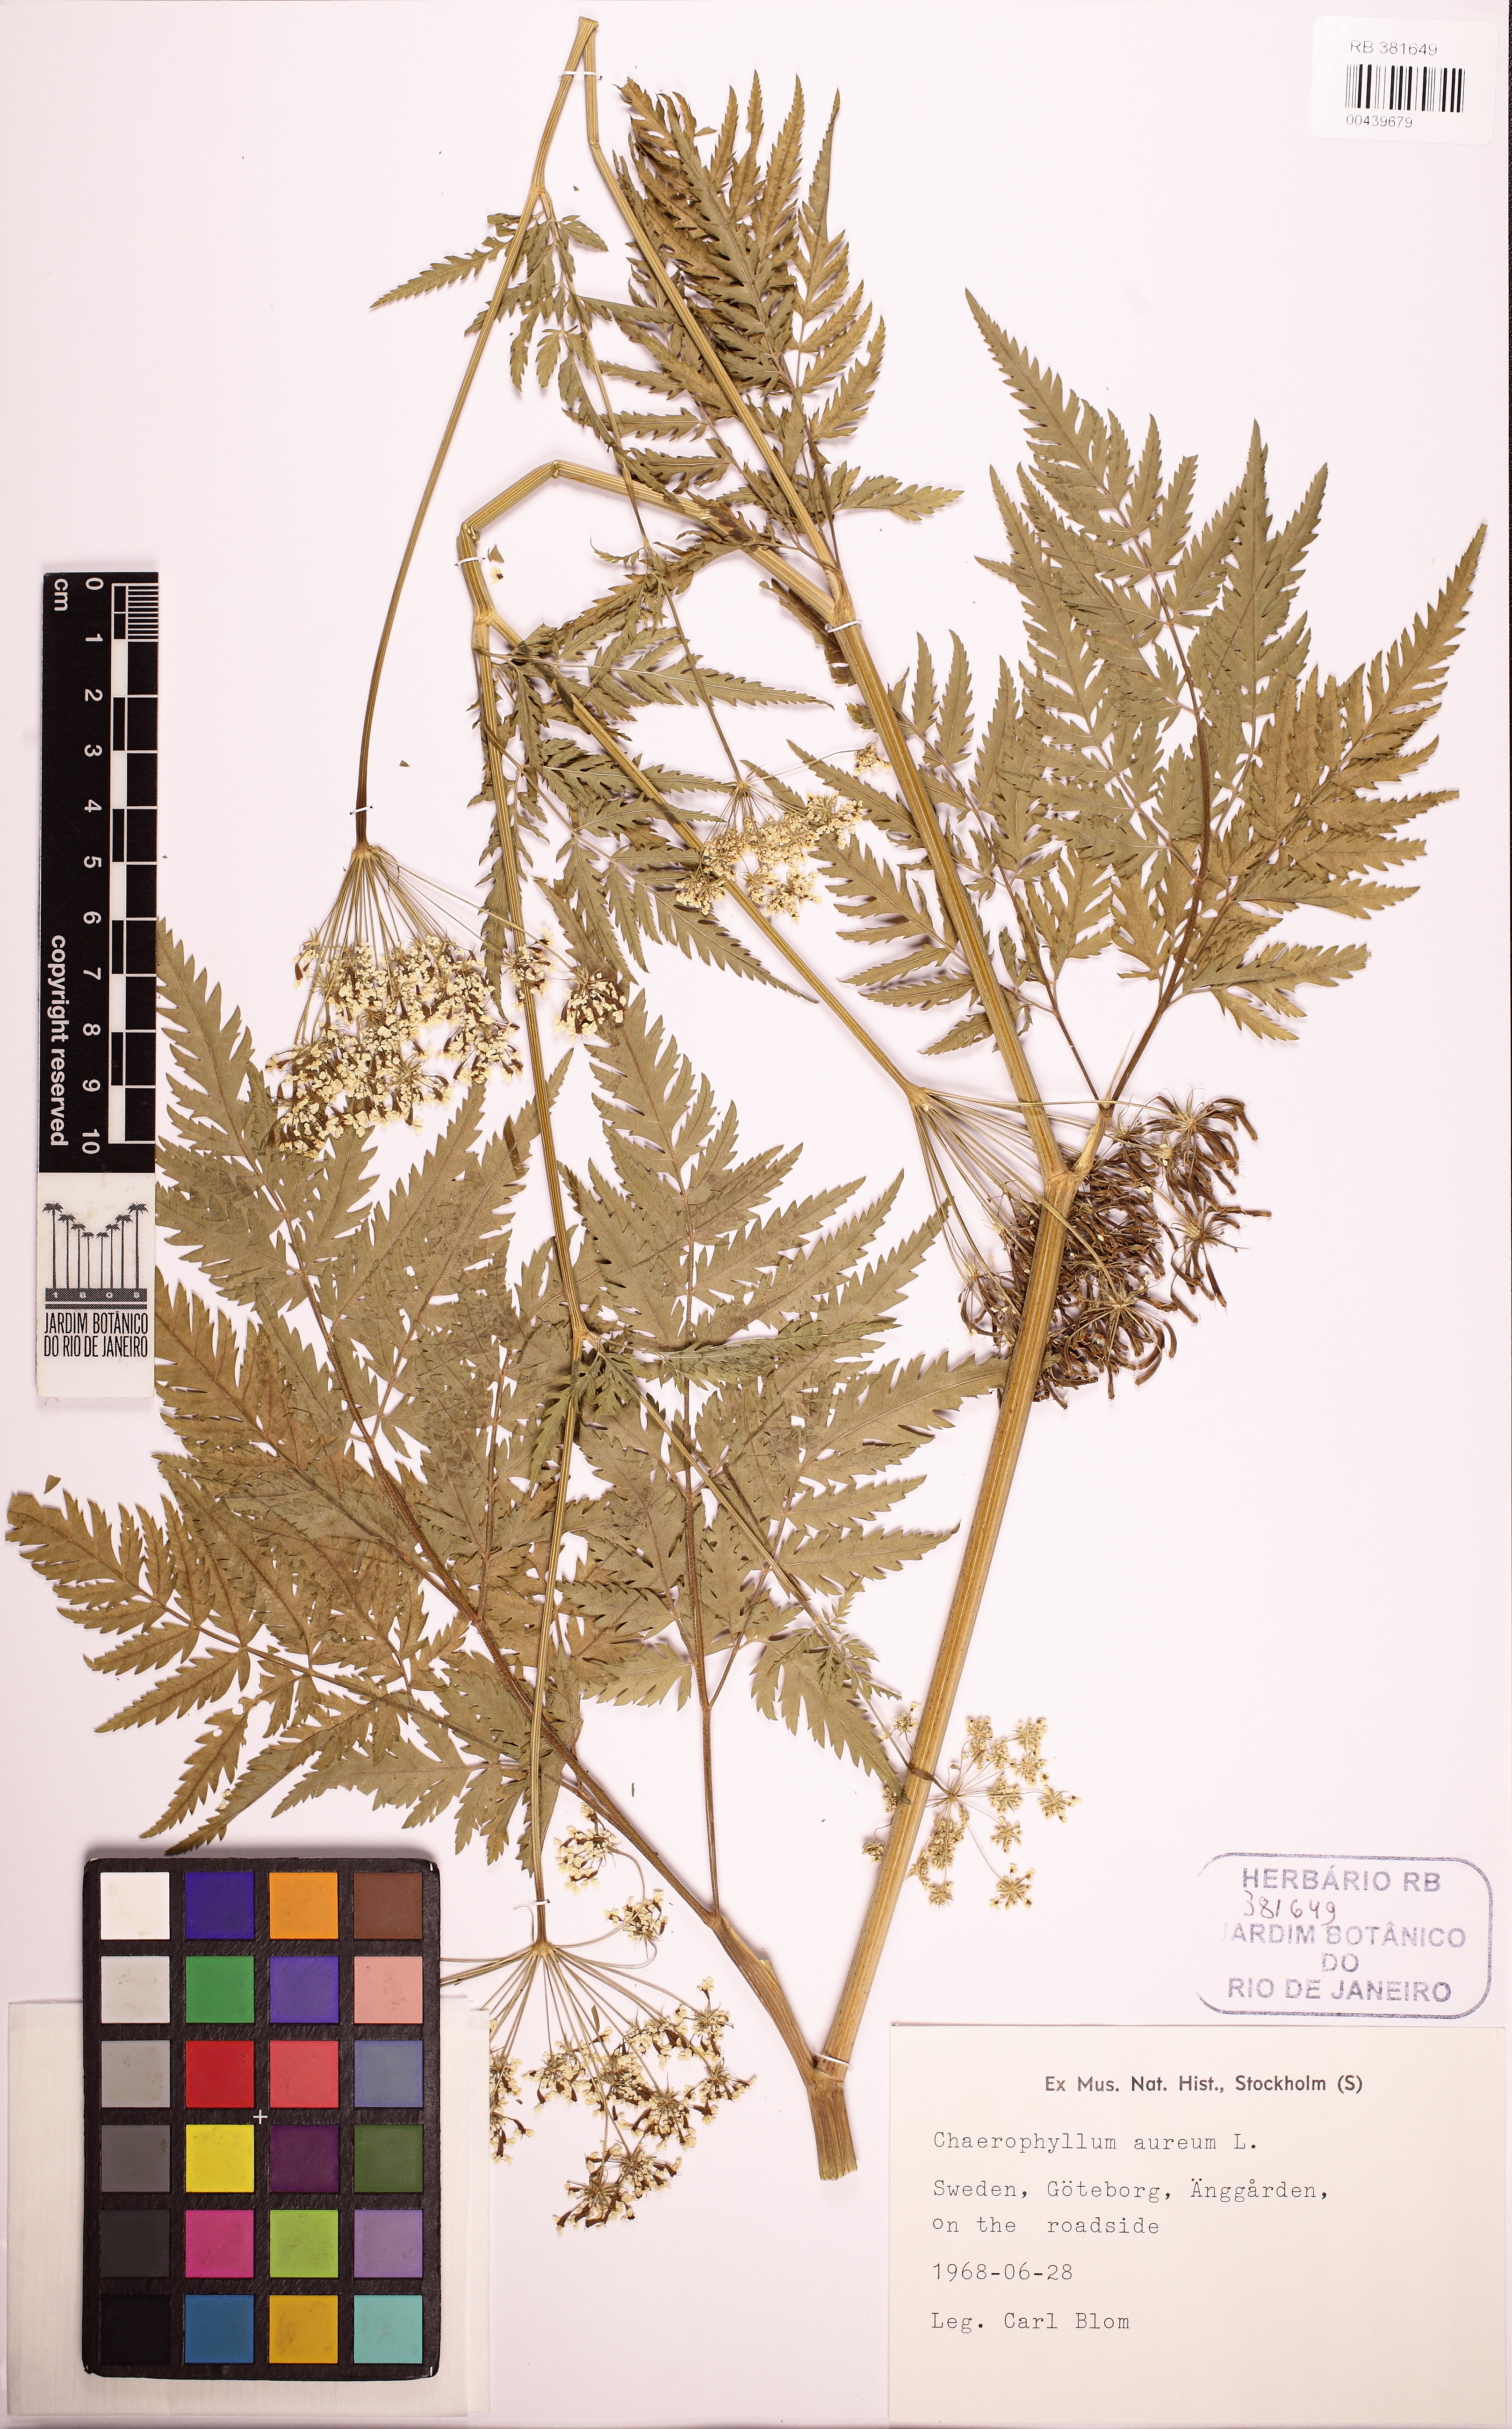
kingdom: Plantae
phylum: Tracheophyta
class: Magnoliopsida
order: Apiales
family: Apiaceae
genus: Chaerophyllum
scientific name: Chaerophyllum aureum
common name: Golden chervil
